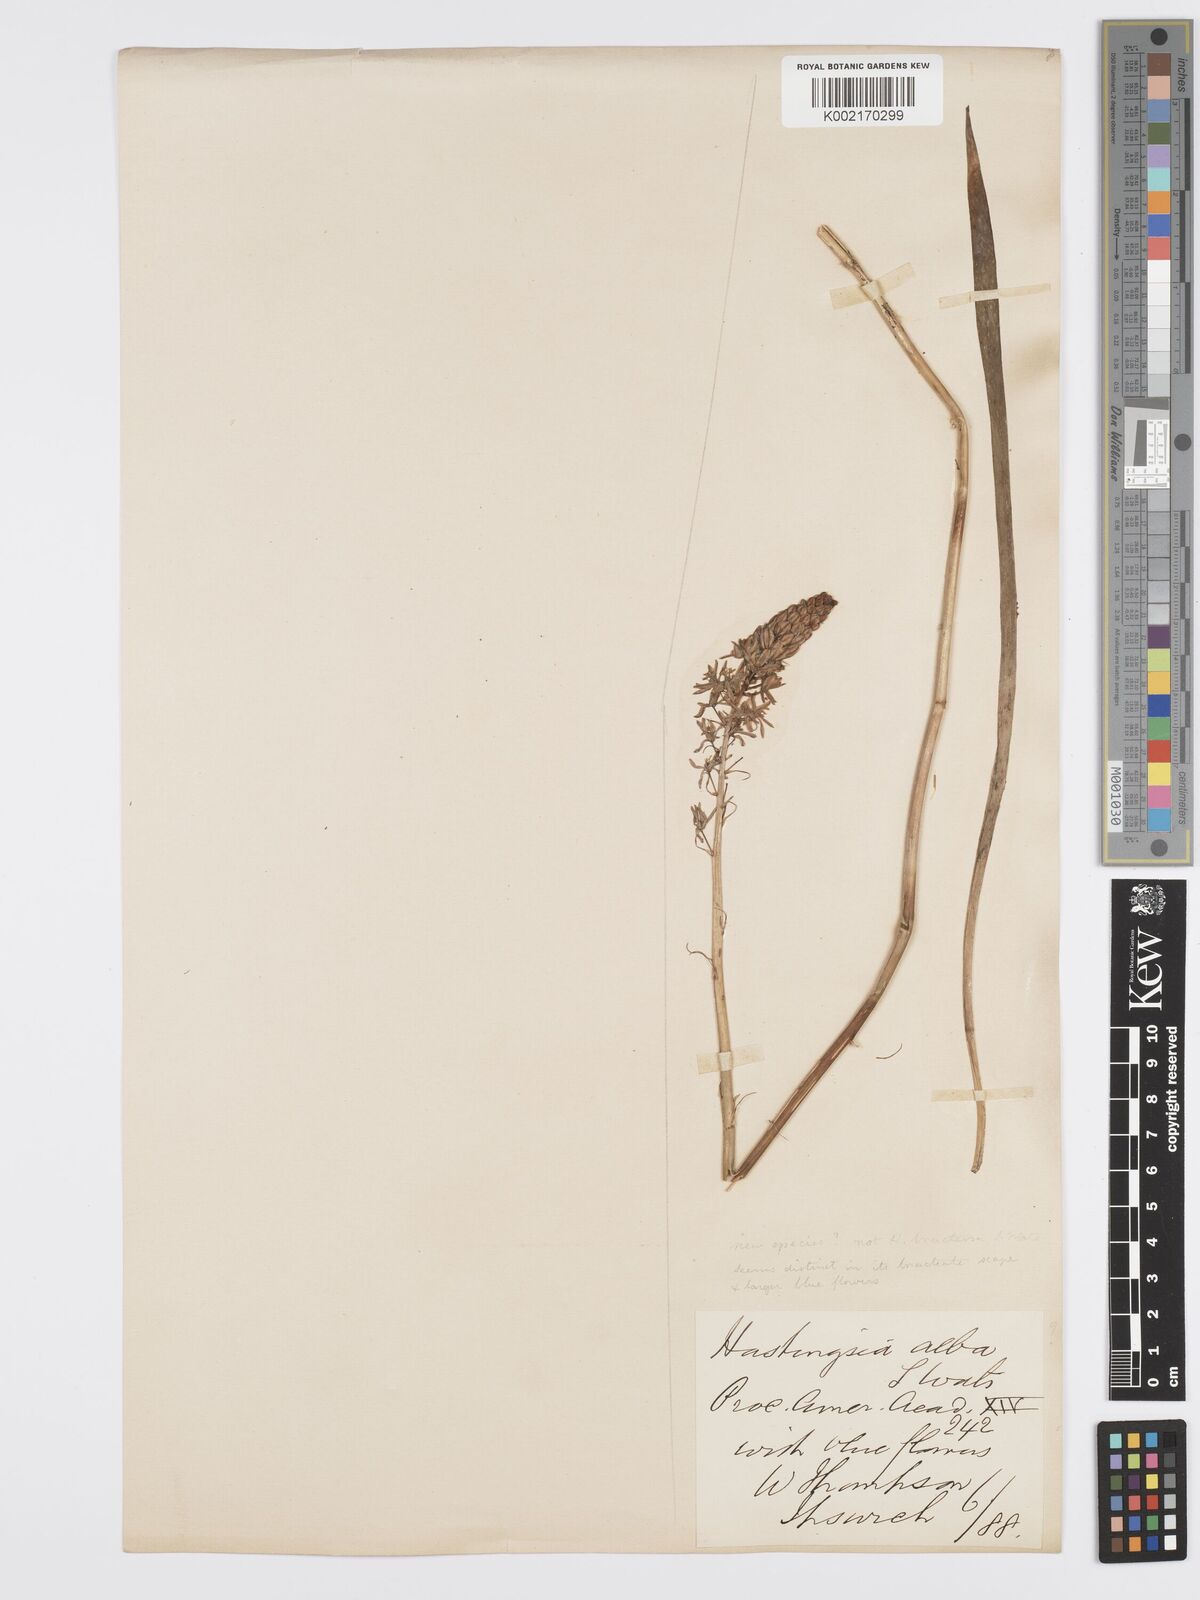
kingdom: Plantae
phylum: Tracheophyta
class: Liliopsida
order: Asparagales
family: Asparagaceae
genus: Camassia
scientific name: Camassia scilloides
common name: Wild hyacinth
